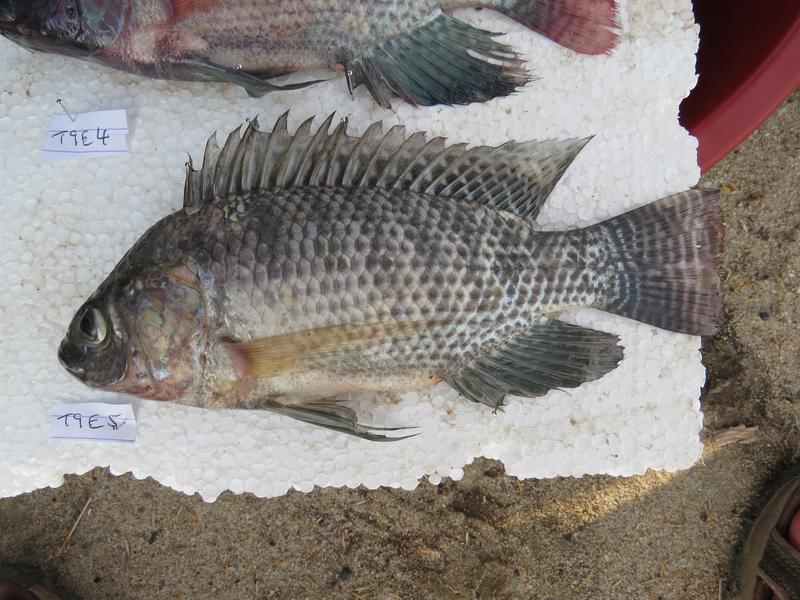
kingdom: Animalia
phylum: Chordata
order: Perciformes
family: Cichlidae
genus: Oreochromis
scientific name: Oreochromis niloticus
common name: Nile tilapia
